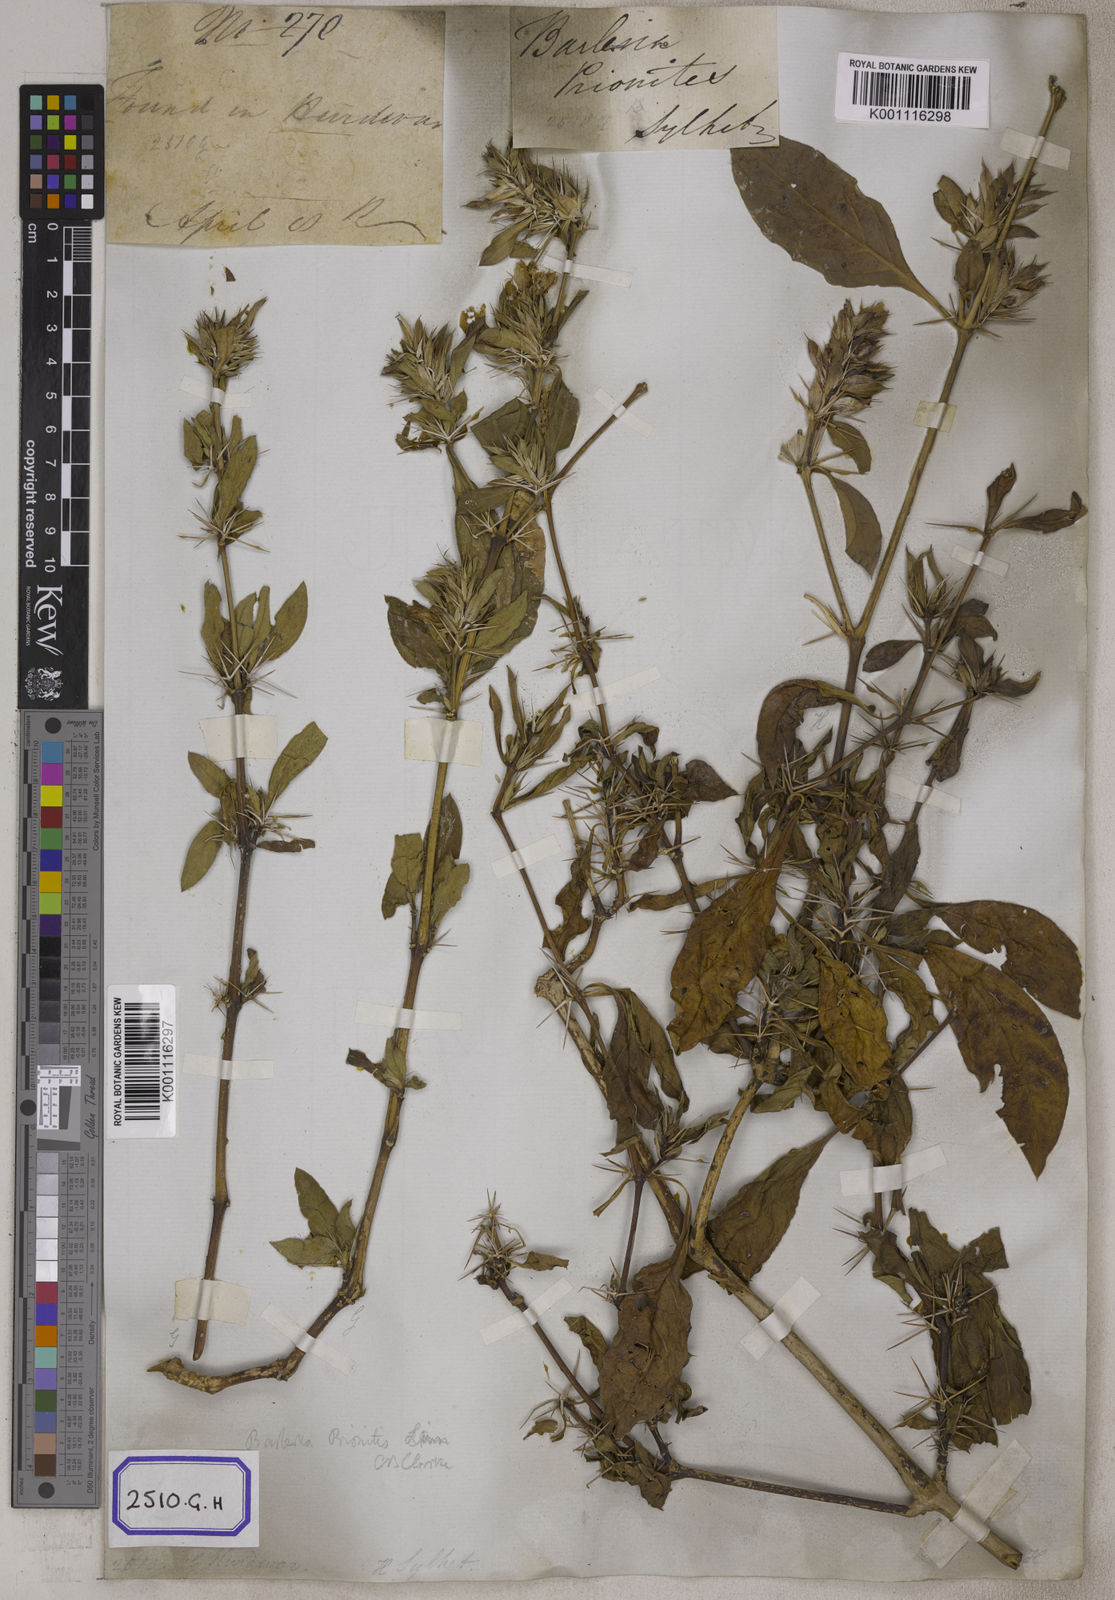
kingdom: Plantae
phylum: Tracheophyta
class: Magnoliopsida
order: Lamiales
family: Acanthaceae
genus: Barleria
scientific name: Barleria prionitis
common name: Barleria
